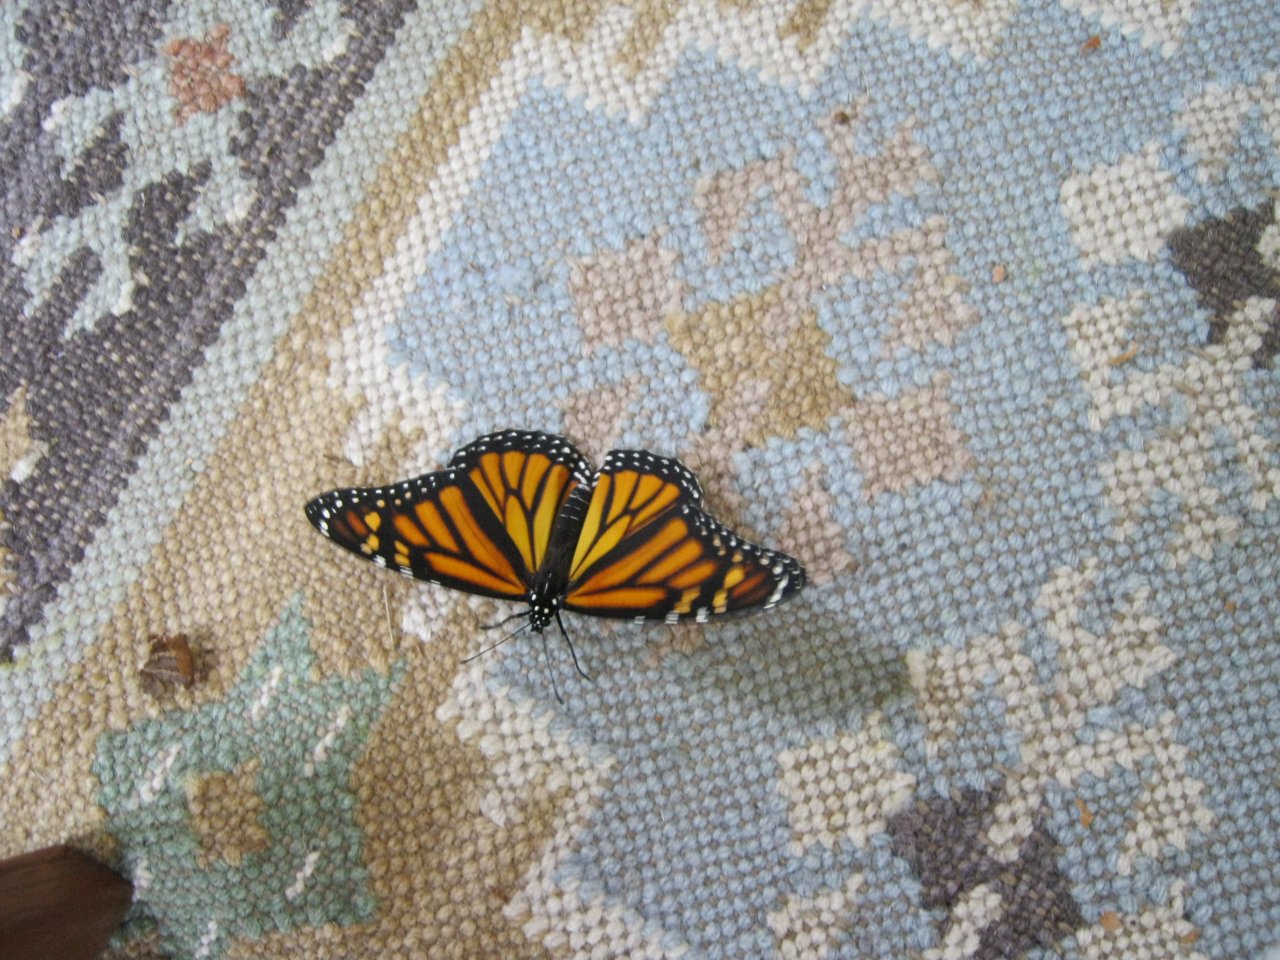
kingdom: Animalia
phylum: Arthropoda
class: Insecta
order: Lepidoptera
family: Nymphalidae
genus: Danaus
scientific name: Danaus plexippus
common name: Monarch
